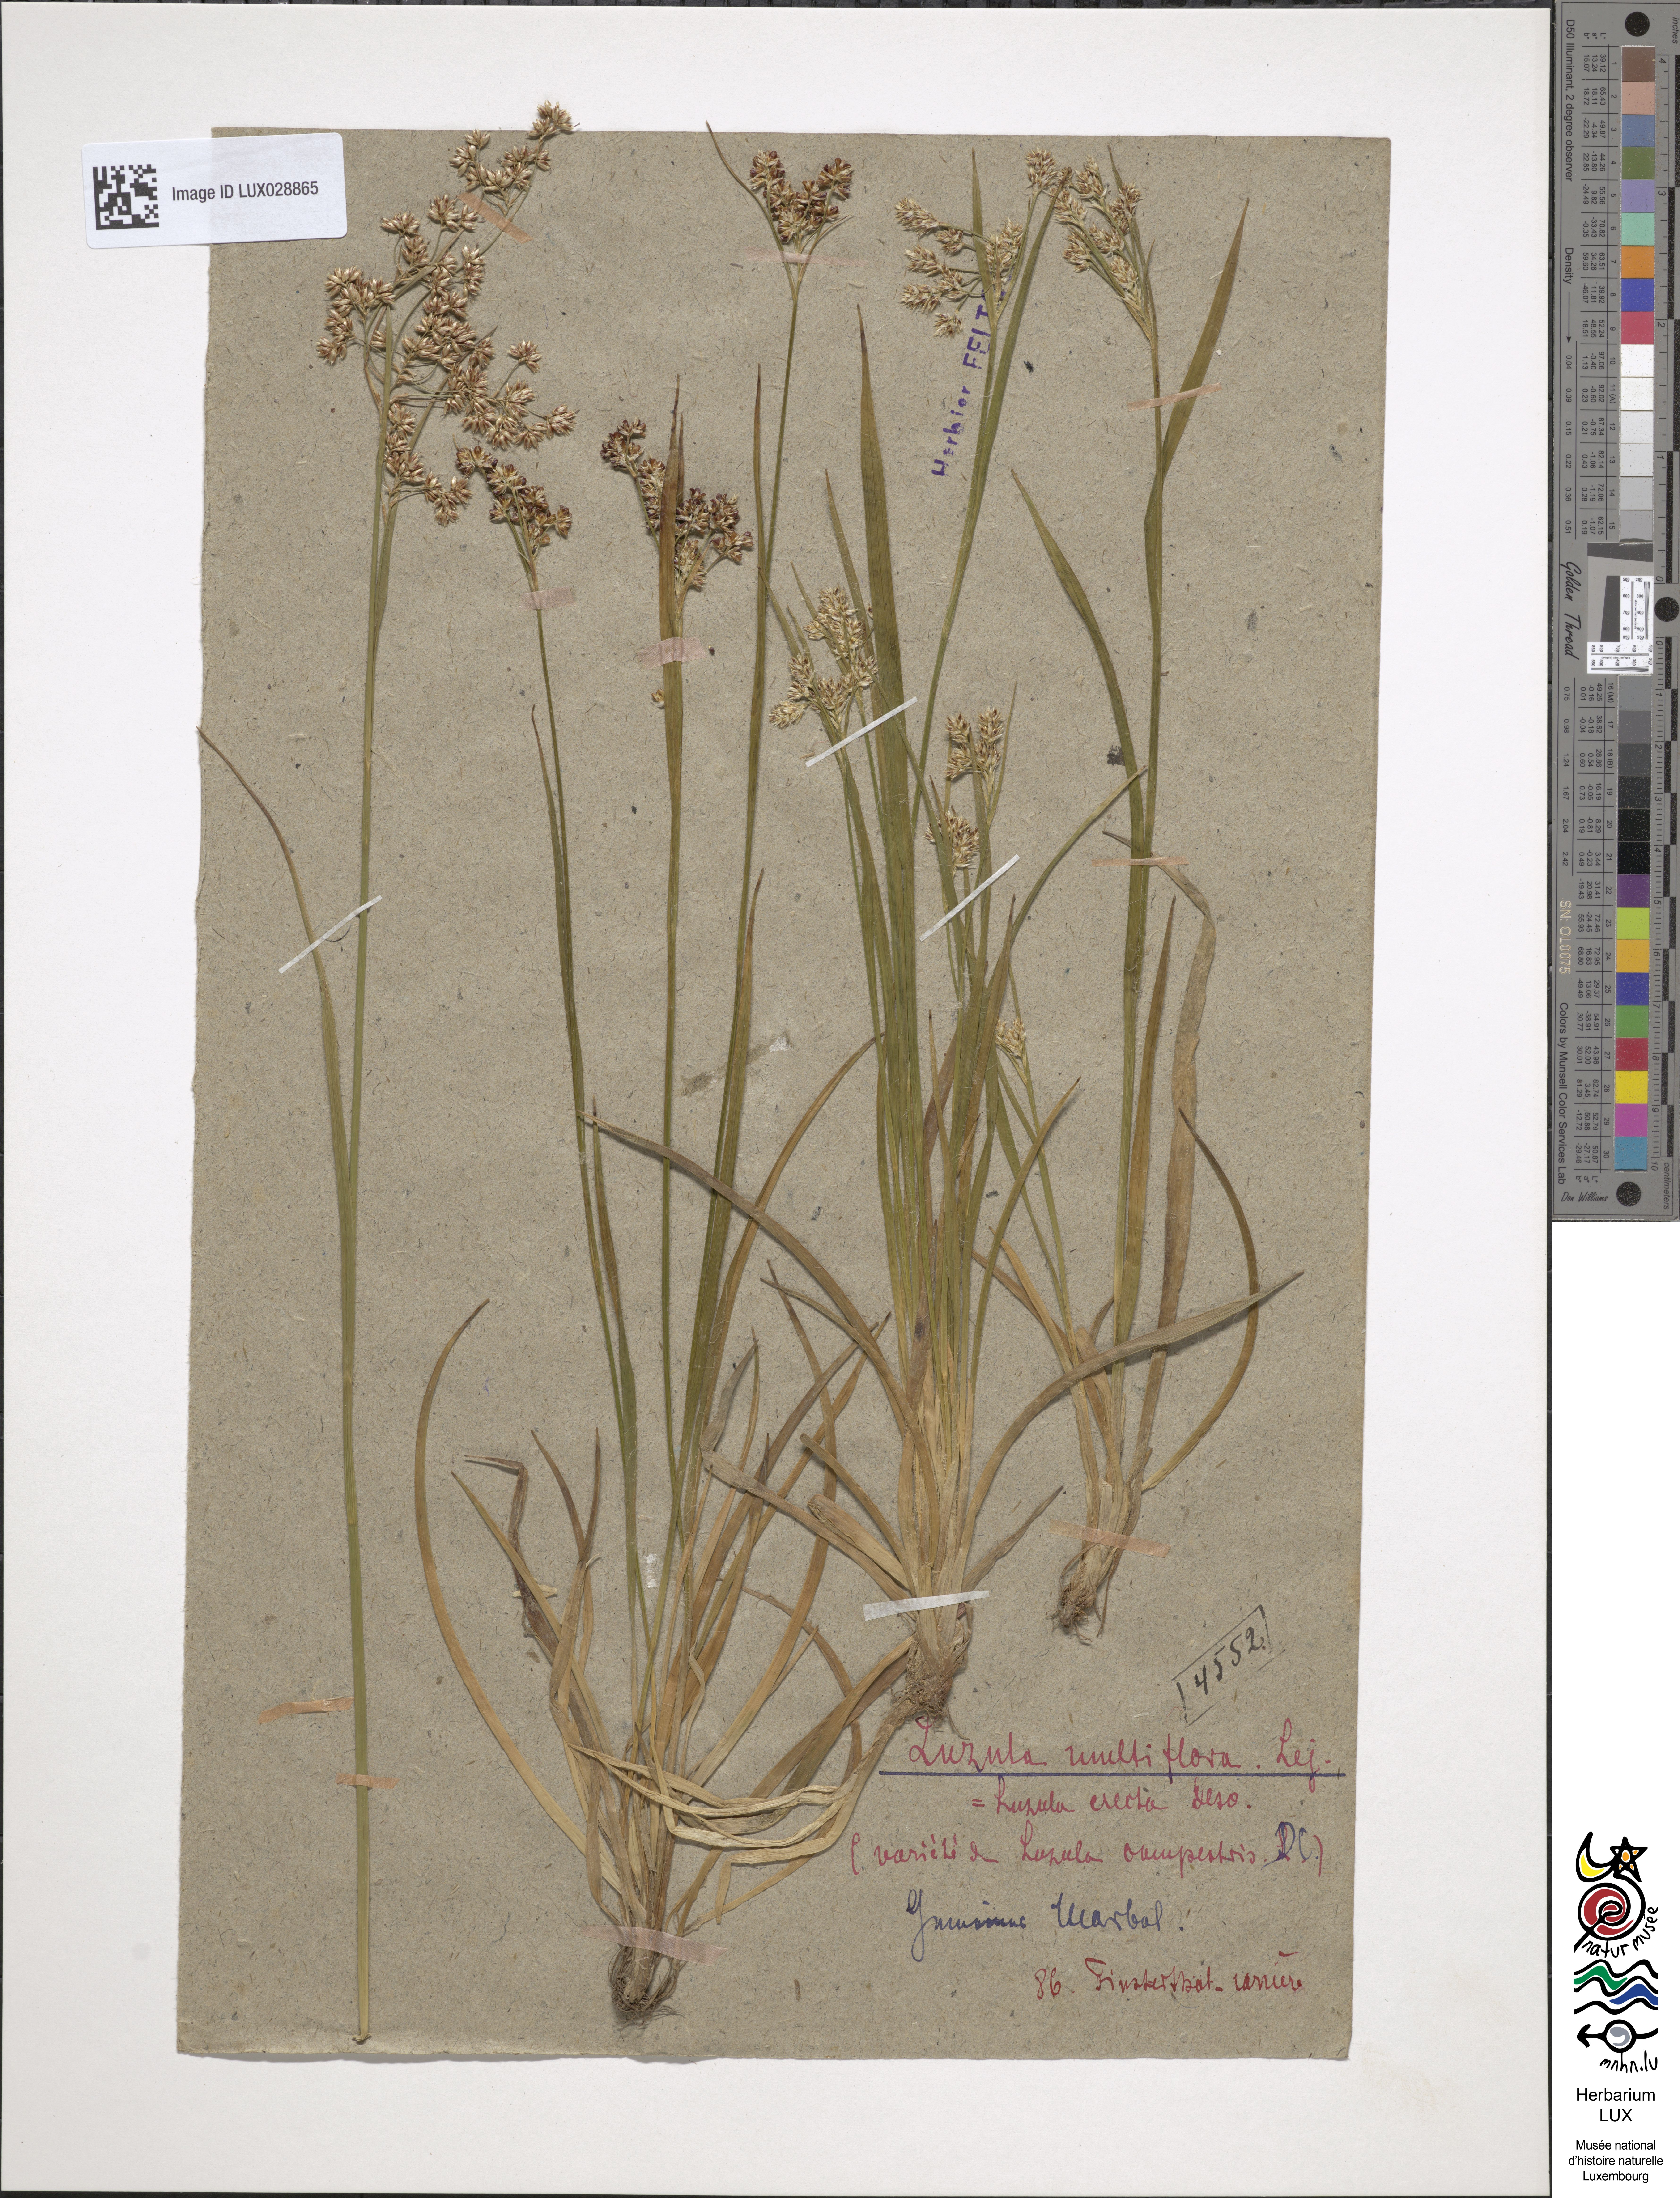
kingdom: Plantae
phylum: Tracheophyta
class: Liliopsida
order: Poales
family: Juncaceae
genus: Luzula
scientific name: Luzula multiflora
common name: Heath wood-rush
